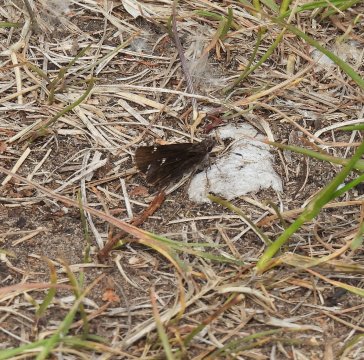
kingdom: Animalia
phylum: Arthropoda
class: Insecta
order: Lepidoptera
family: Hesperiidae
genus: Mastor
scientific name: Mastor vialis
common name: Common Roadside-Skipper
